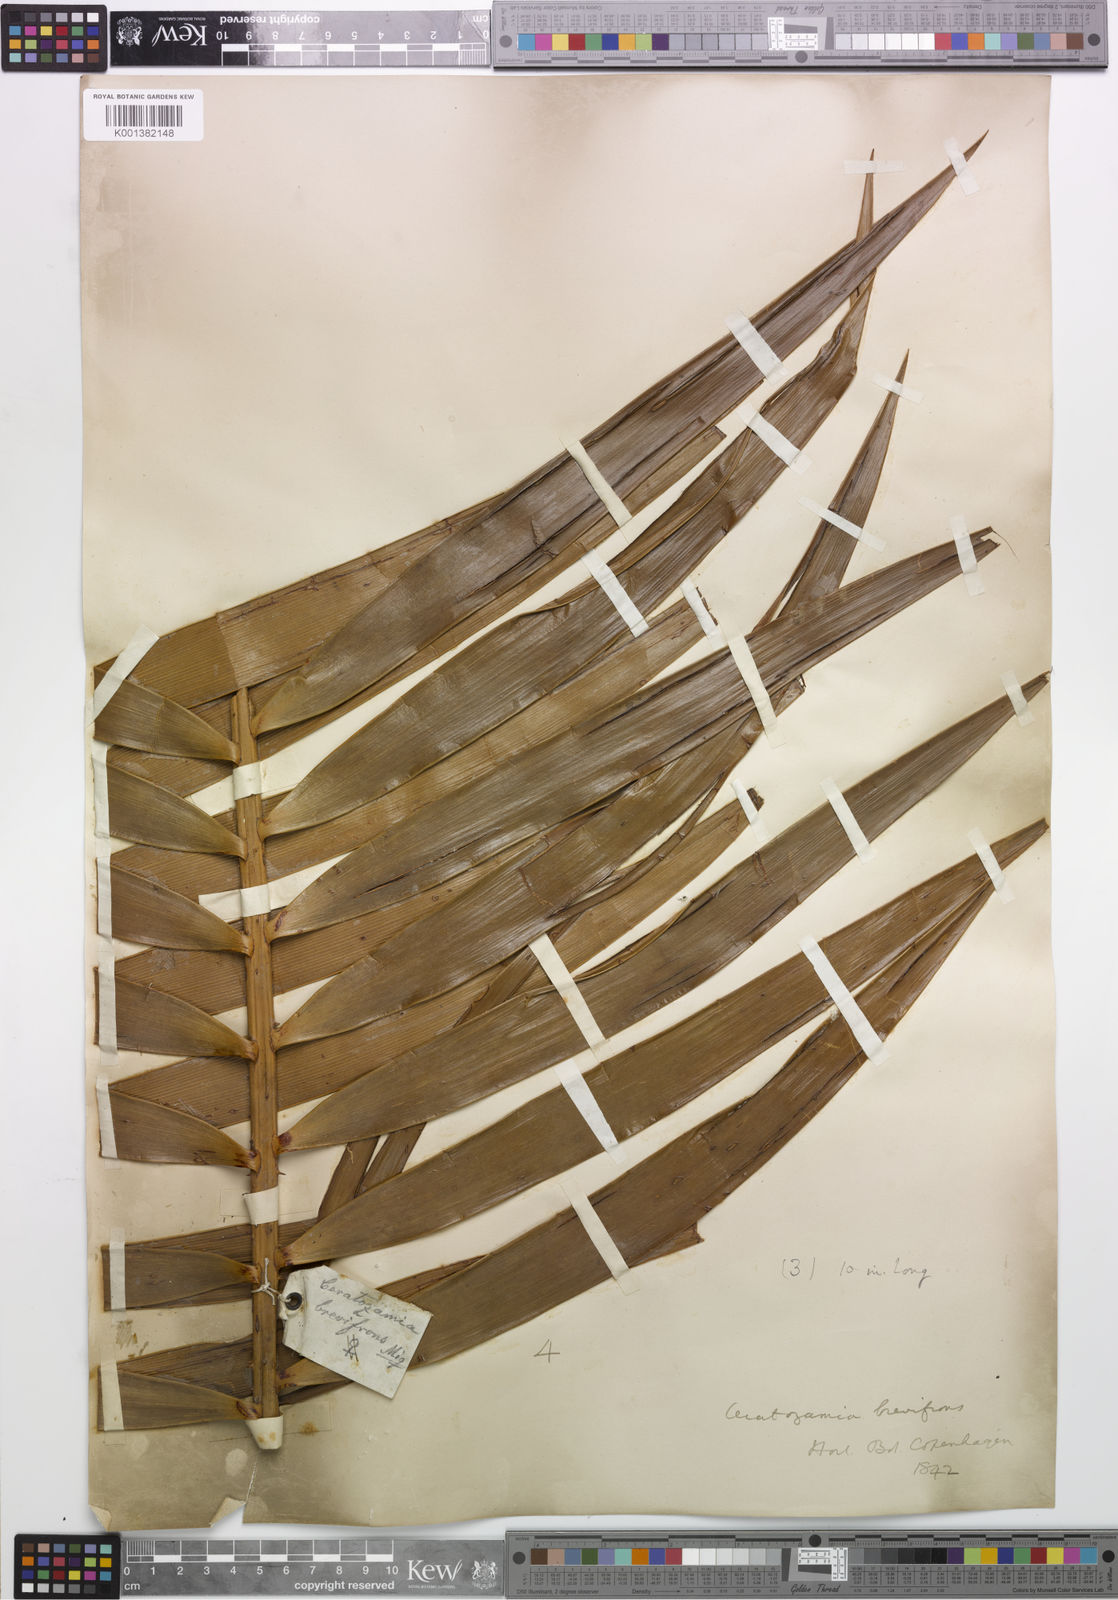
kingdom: Plantae
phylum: Tracheophyta
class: Cycadopsida
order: Cycadales
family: Zamiaceae
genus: Ceratozamia
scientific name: Ceratozamia mexicana
